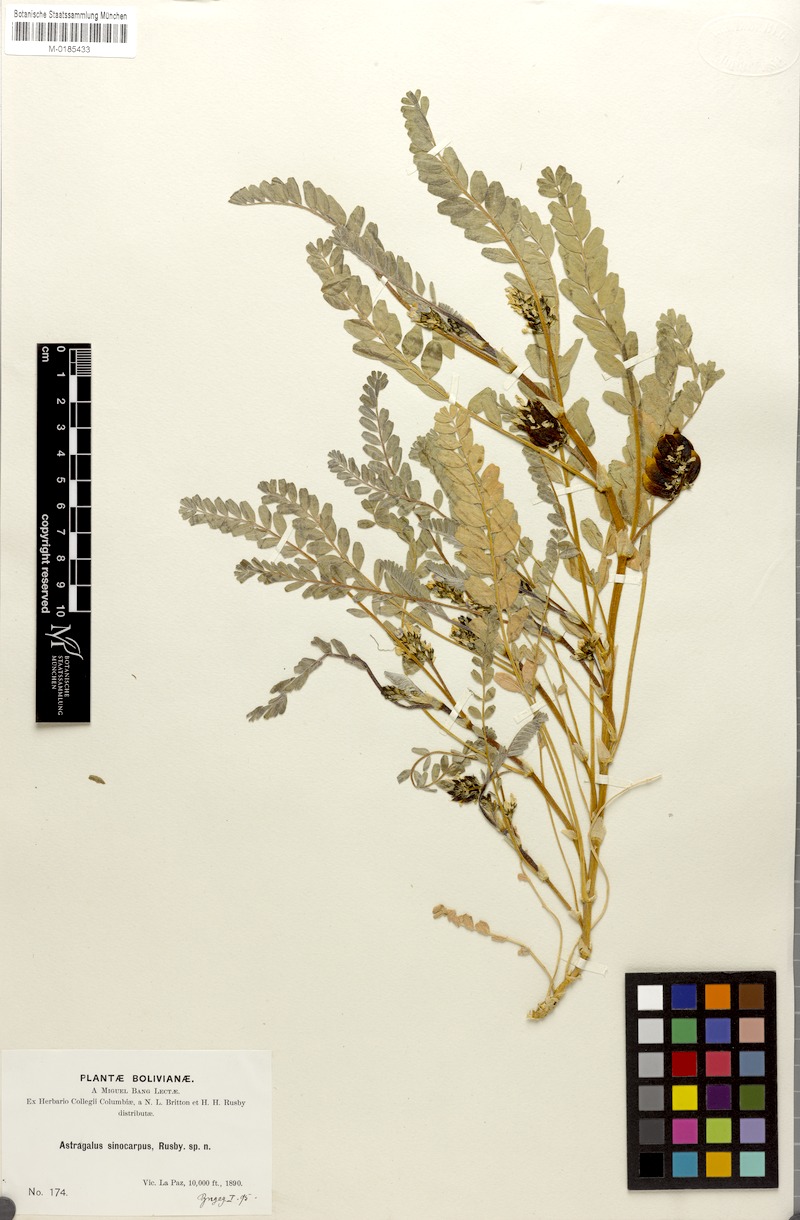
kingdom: Plantae
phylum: Tracheophyta
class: Magnoliopsida
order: Fabales
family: Fabaceae
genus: Astragalus
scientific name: Astragalus arequipensis
